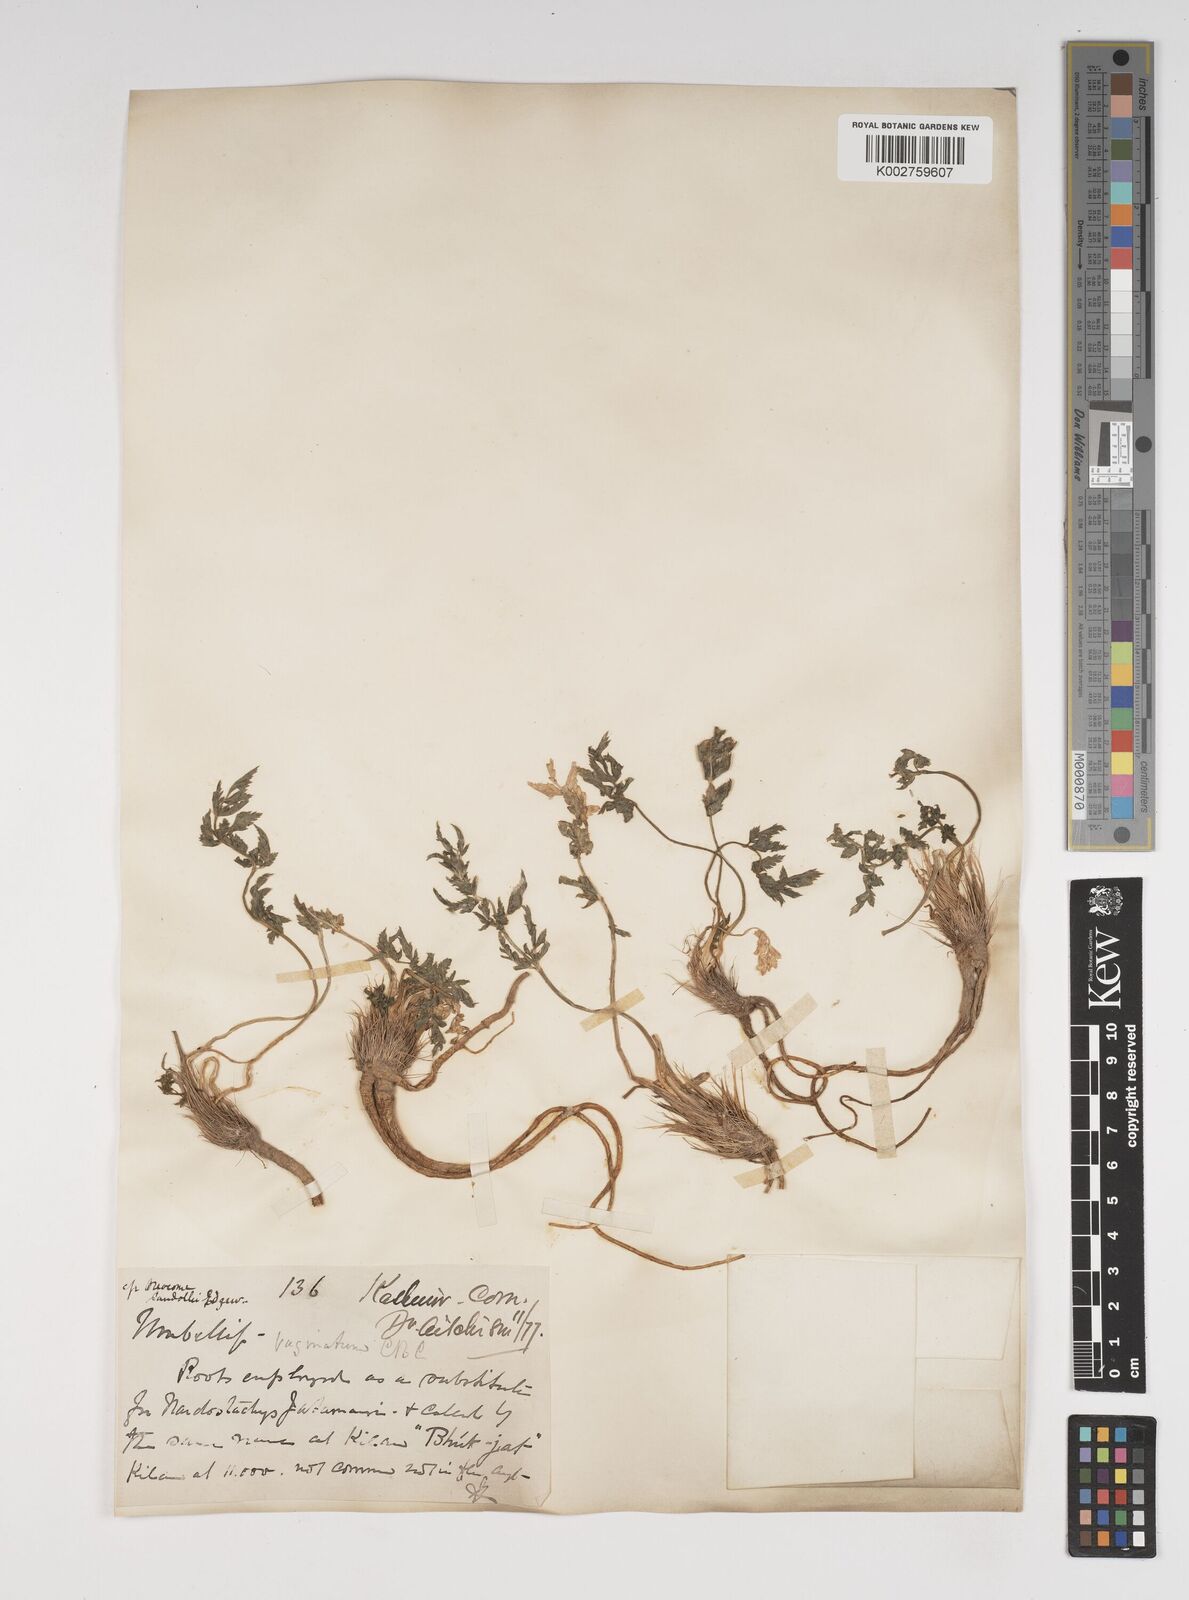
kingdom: Plantae
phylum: Tracheophyta
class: Magnoliopsida
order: Apiales
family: Apiaceae
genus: Selinum
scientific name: Selinum vaginatum
